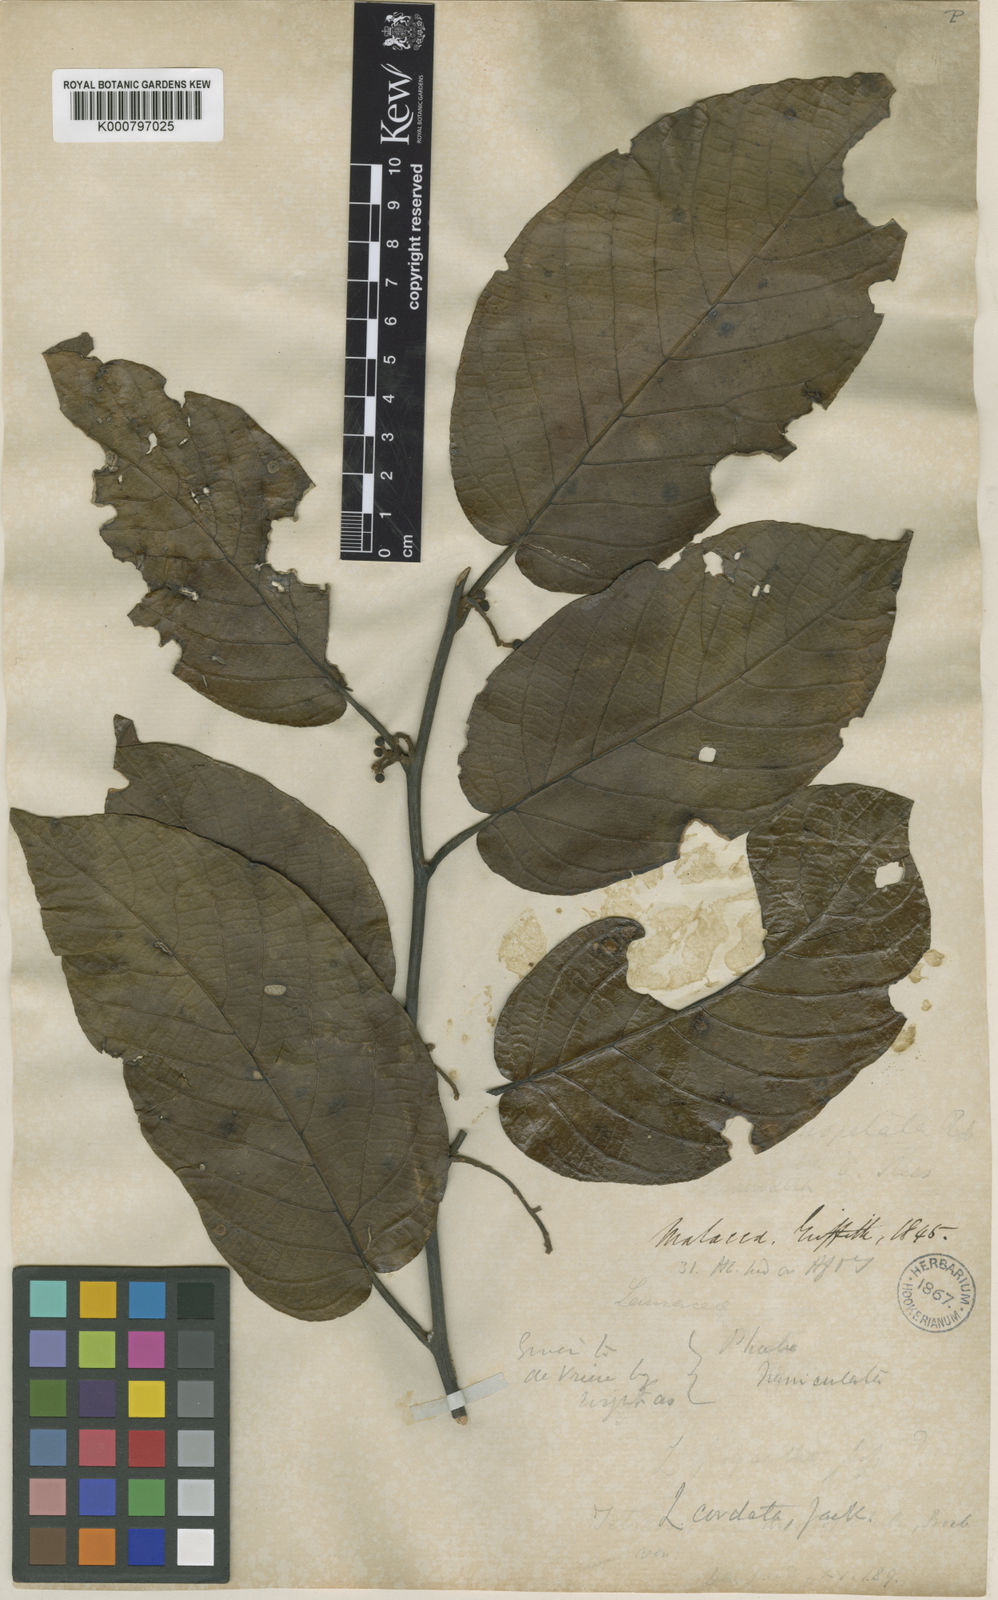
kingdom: Plantae
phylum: Tracheophyta
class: Magnoliopsida
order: Laurales
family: Lauraceae
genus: Litsea
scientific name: Litsea cordata
